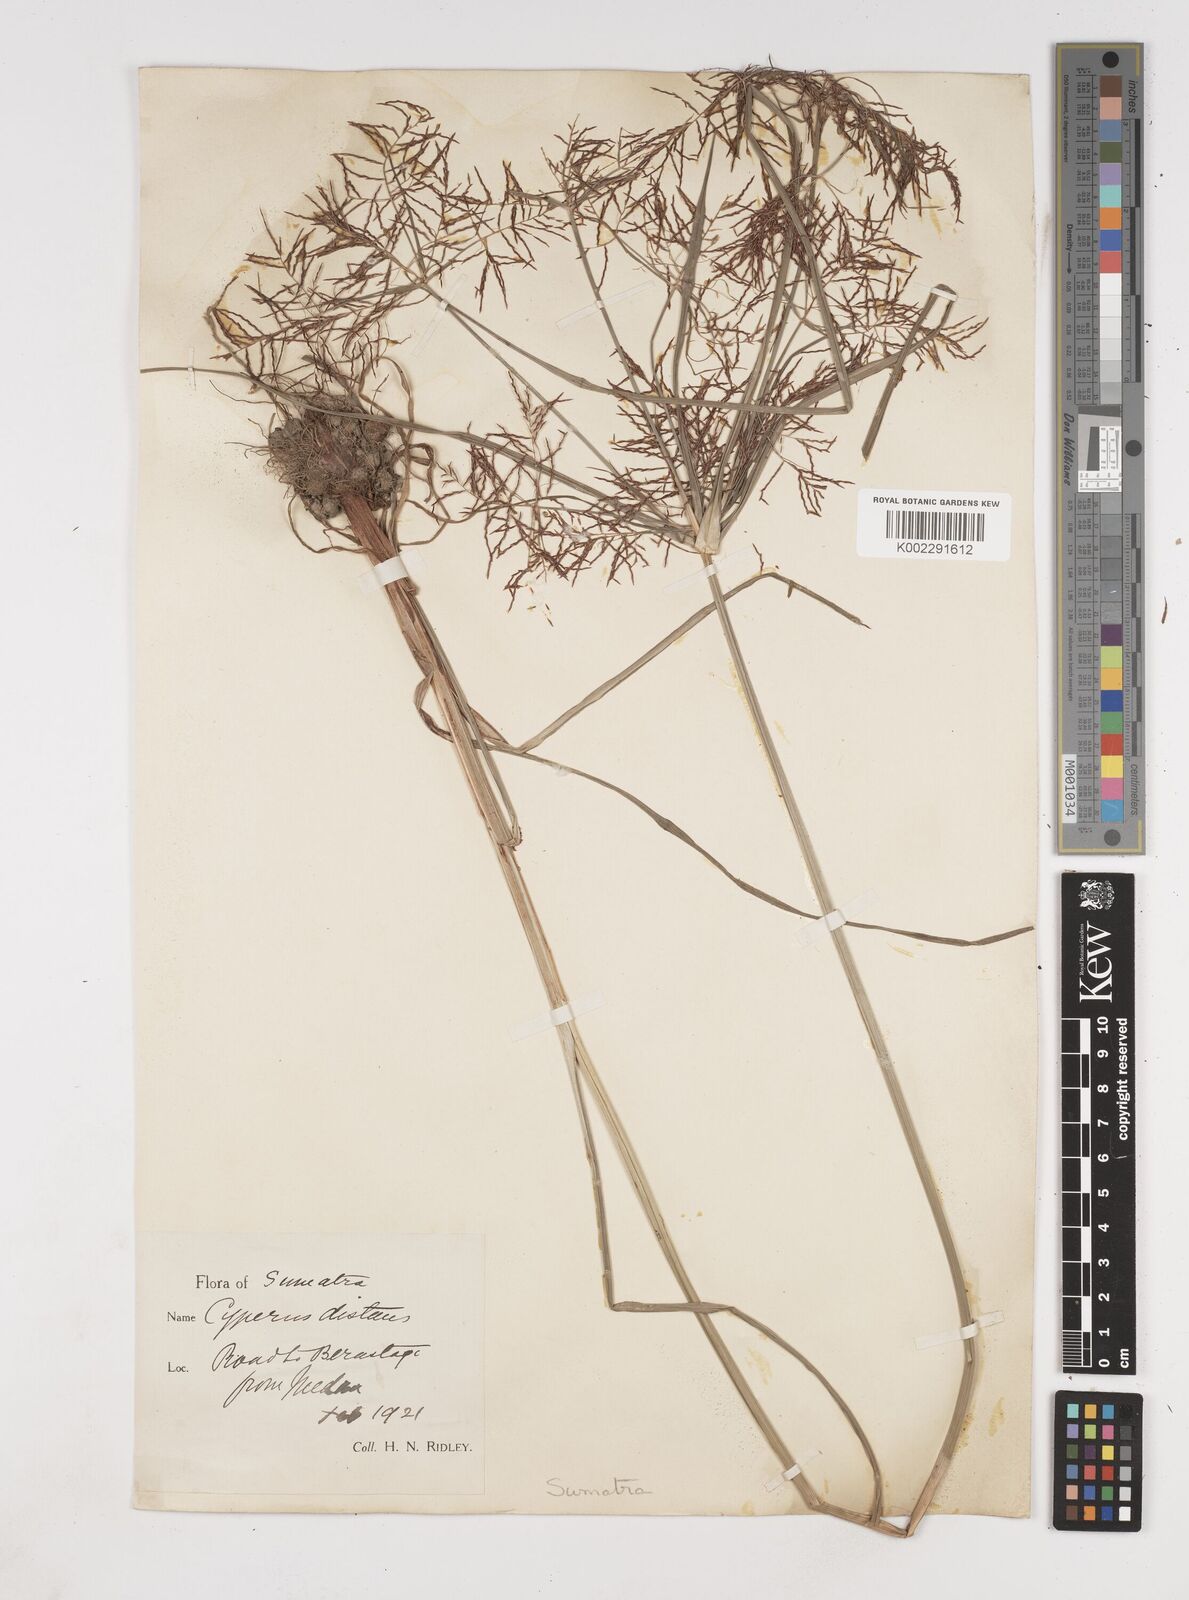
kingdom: Plantae
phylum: Tracheophyta
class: Liliopsida
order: Poales
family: Cyperaceae
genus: Cyperus
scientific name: Cyperus distans
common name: Slender cyperus
